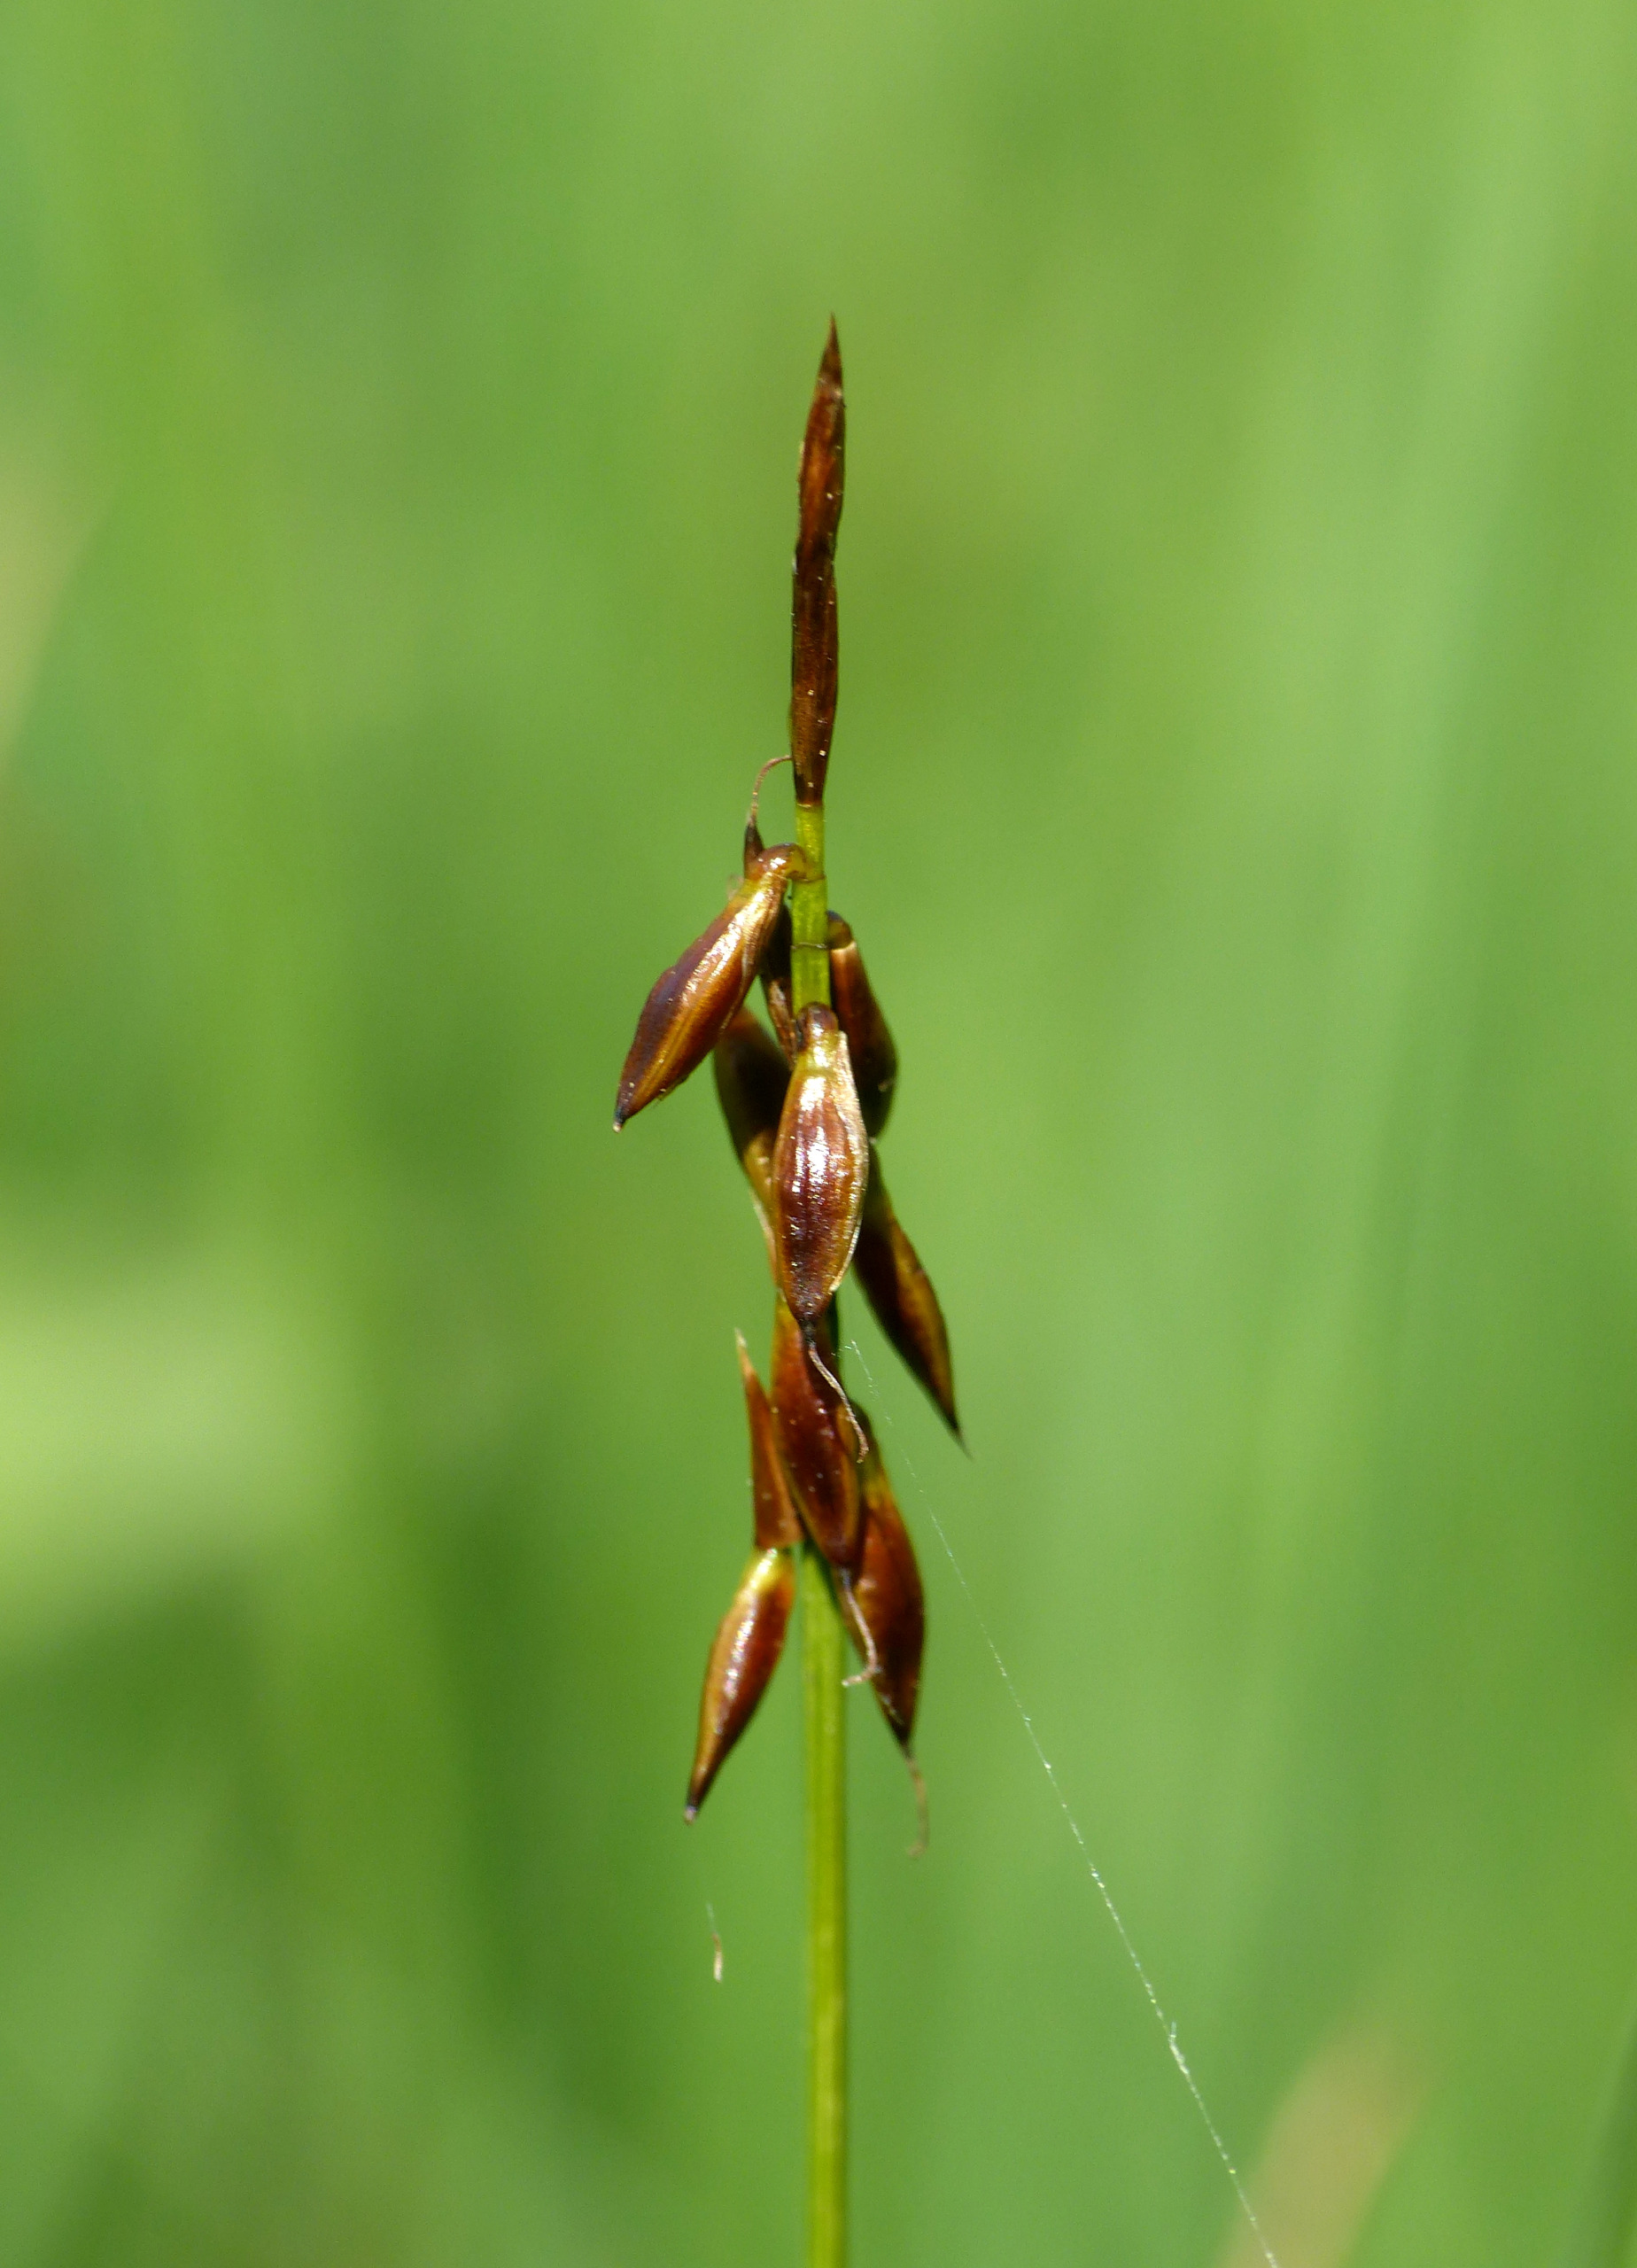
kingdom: Plantae
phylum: Tracheophyta
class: Liliopsida
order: Poales
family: Cyperaceae
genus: Carex
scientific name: Carex pulicaris
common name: Loppe-star
